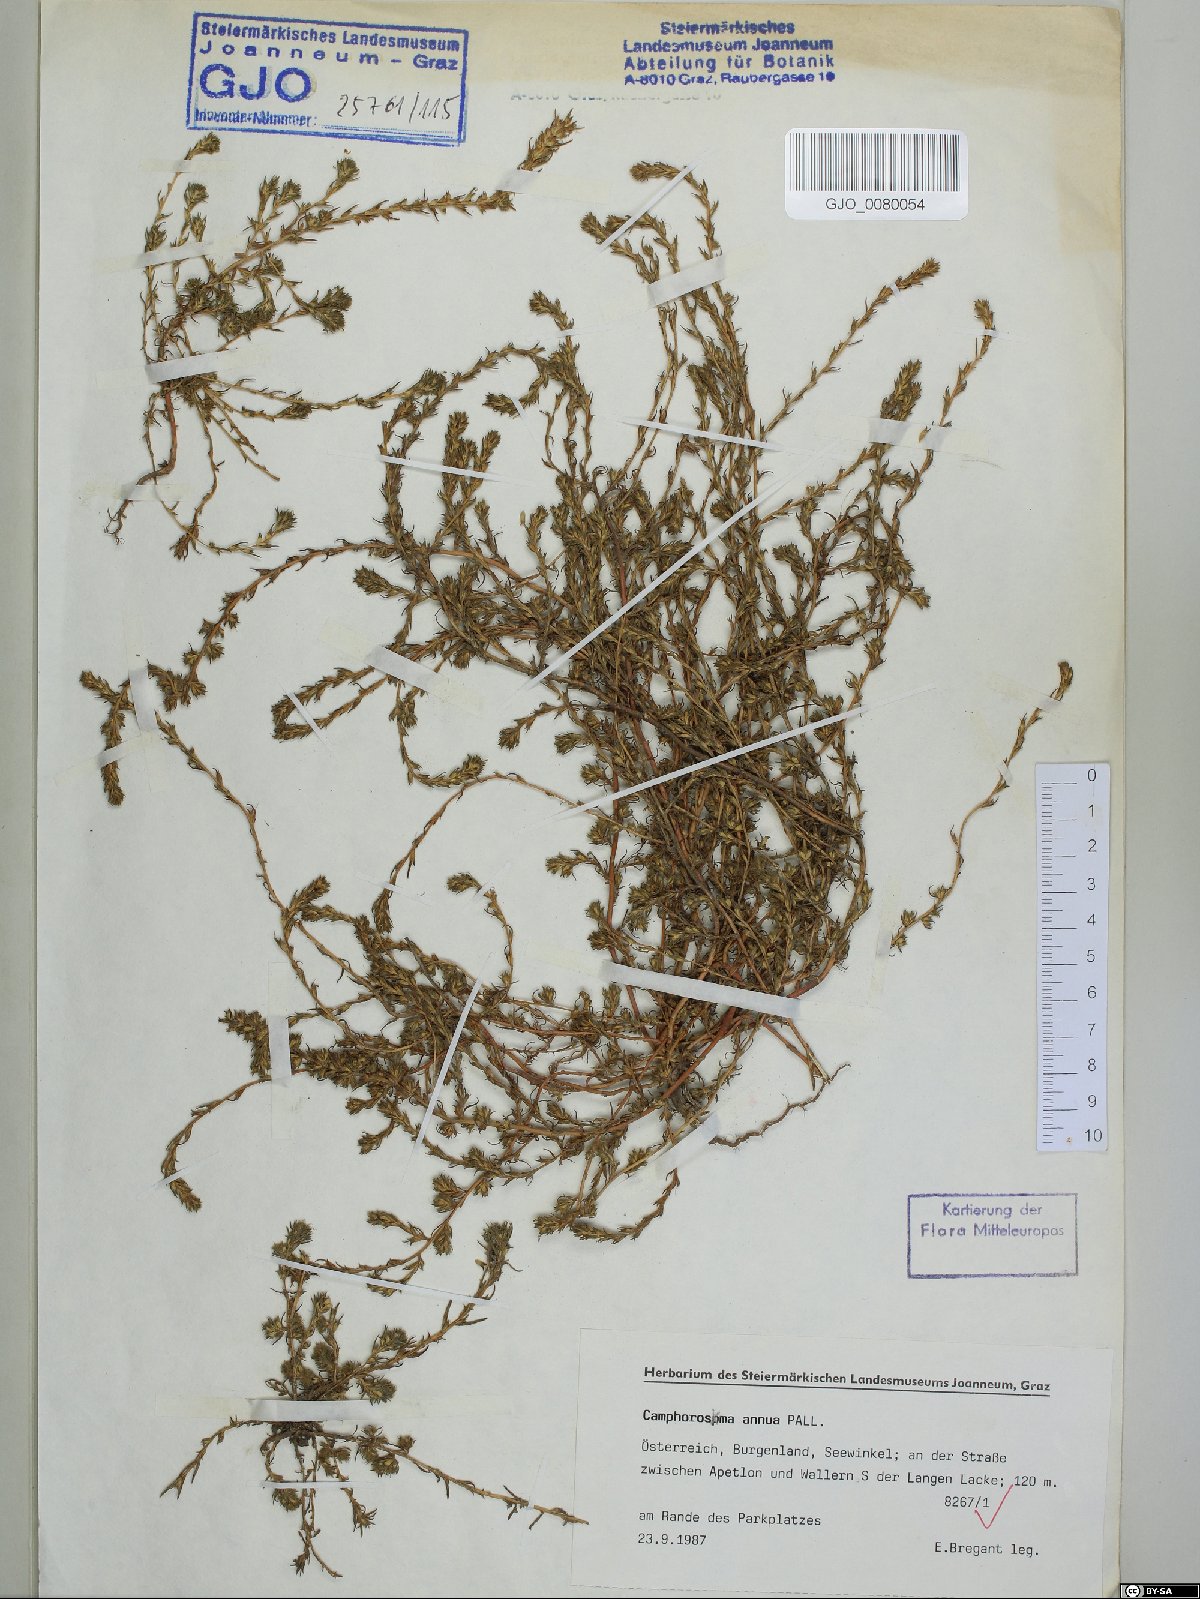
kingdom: Plantae
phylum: Tracheophyta
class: Magnoliopsida
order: Caryophyllales
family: Amaranthaceae
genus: Camphorosma
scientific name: Camphorosma annua
